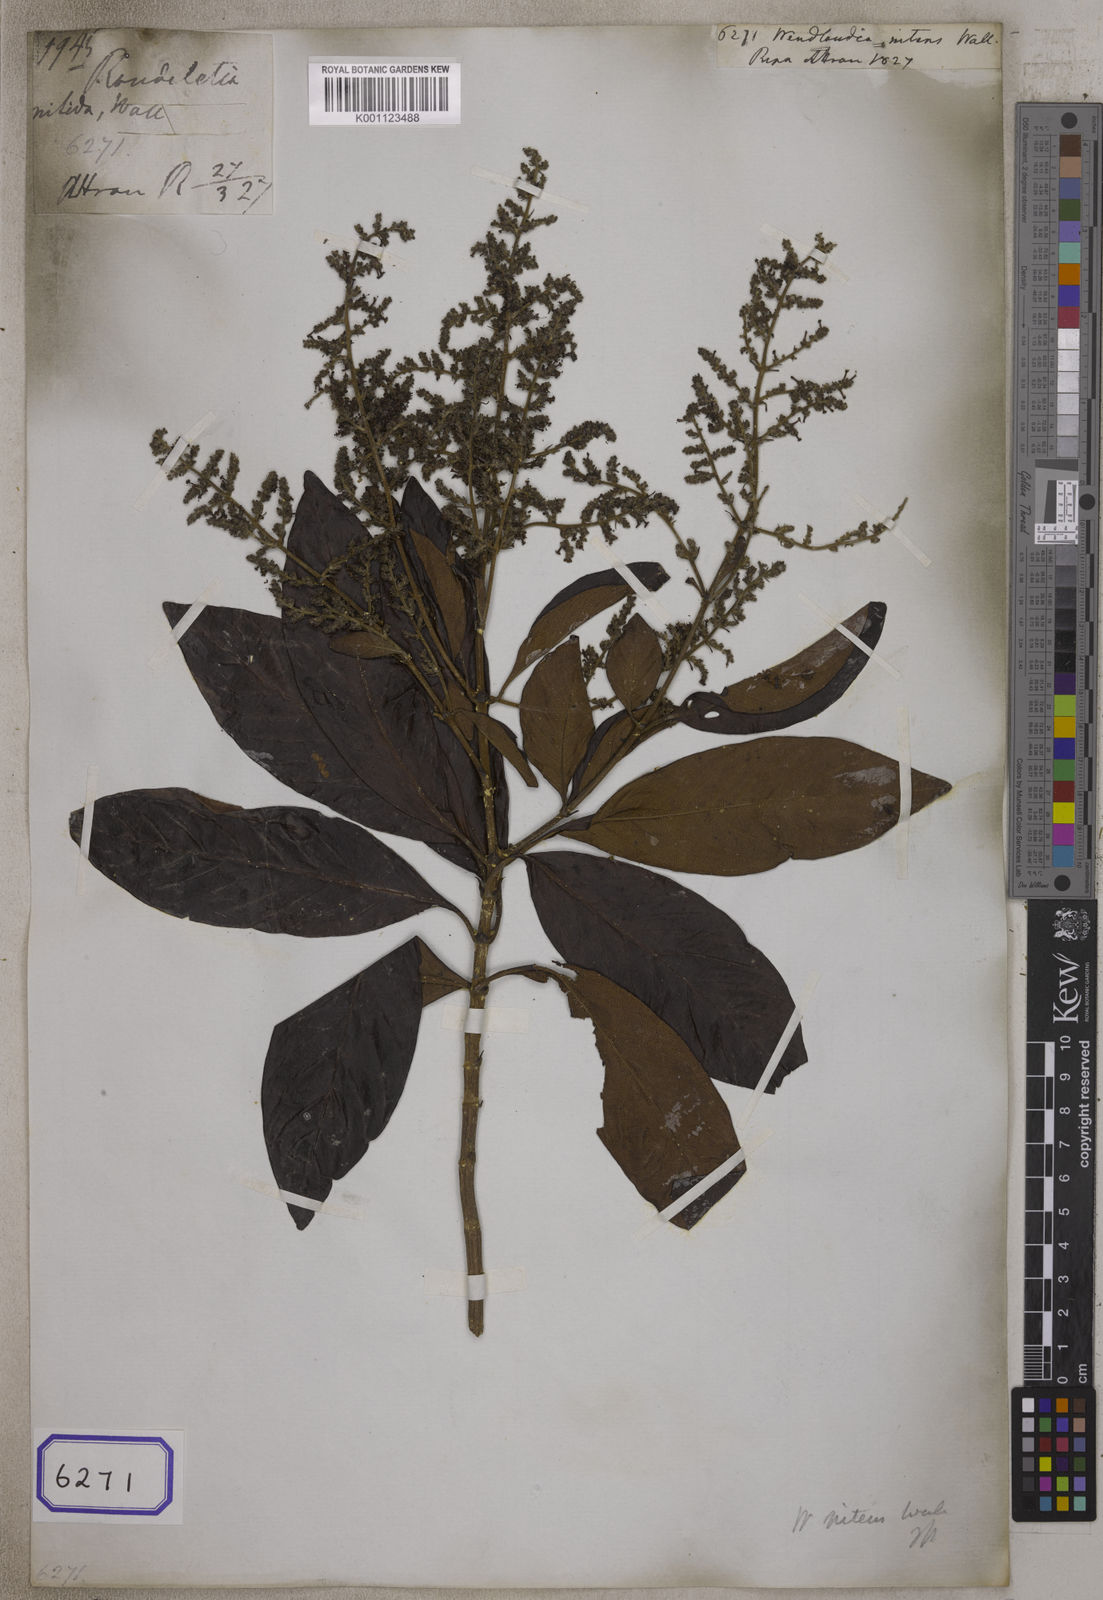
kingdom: Plantae
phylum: Tracheophyta
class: Magnoliopsida
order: Gentianales
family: Rubiaceae
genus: Wendlandia
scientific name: Wendlandia
